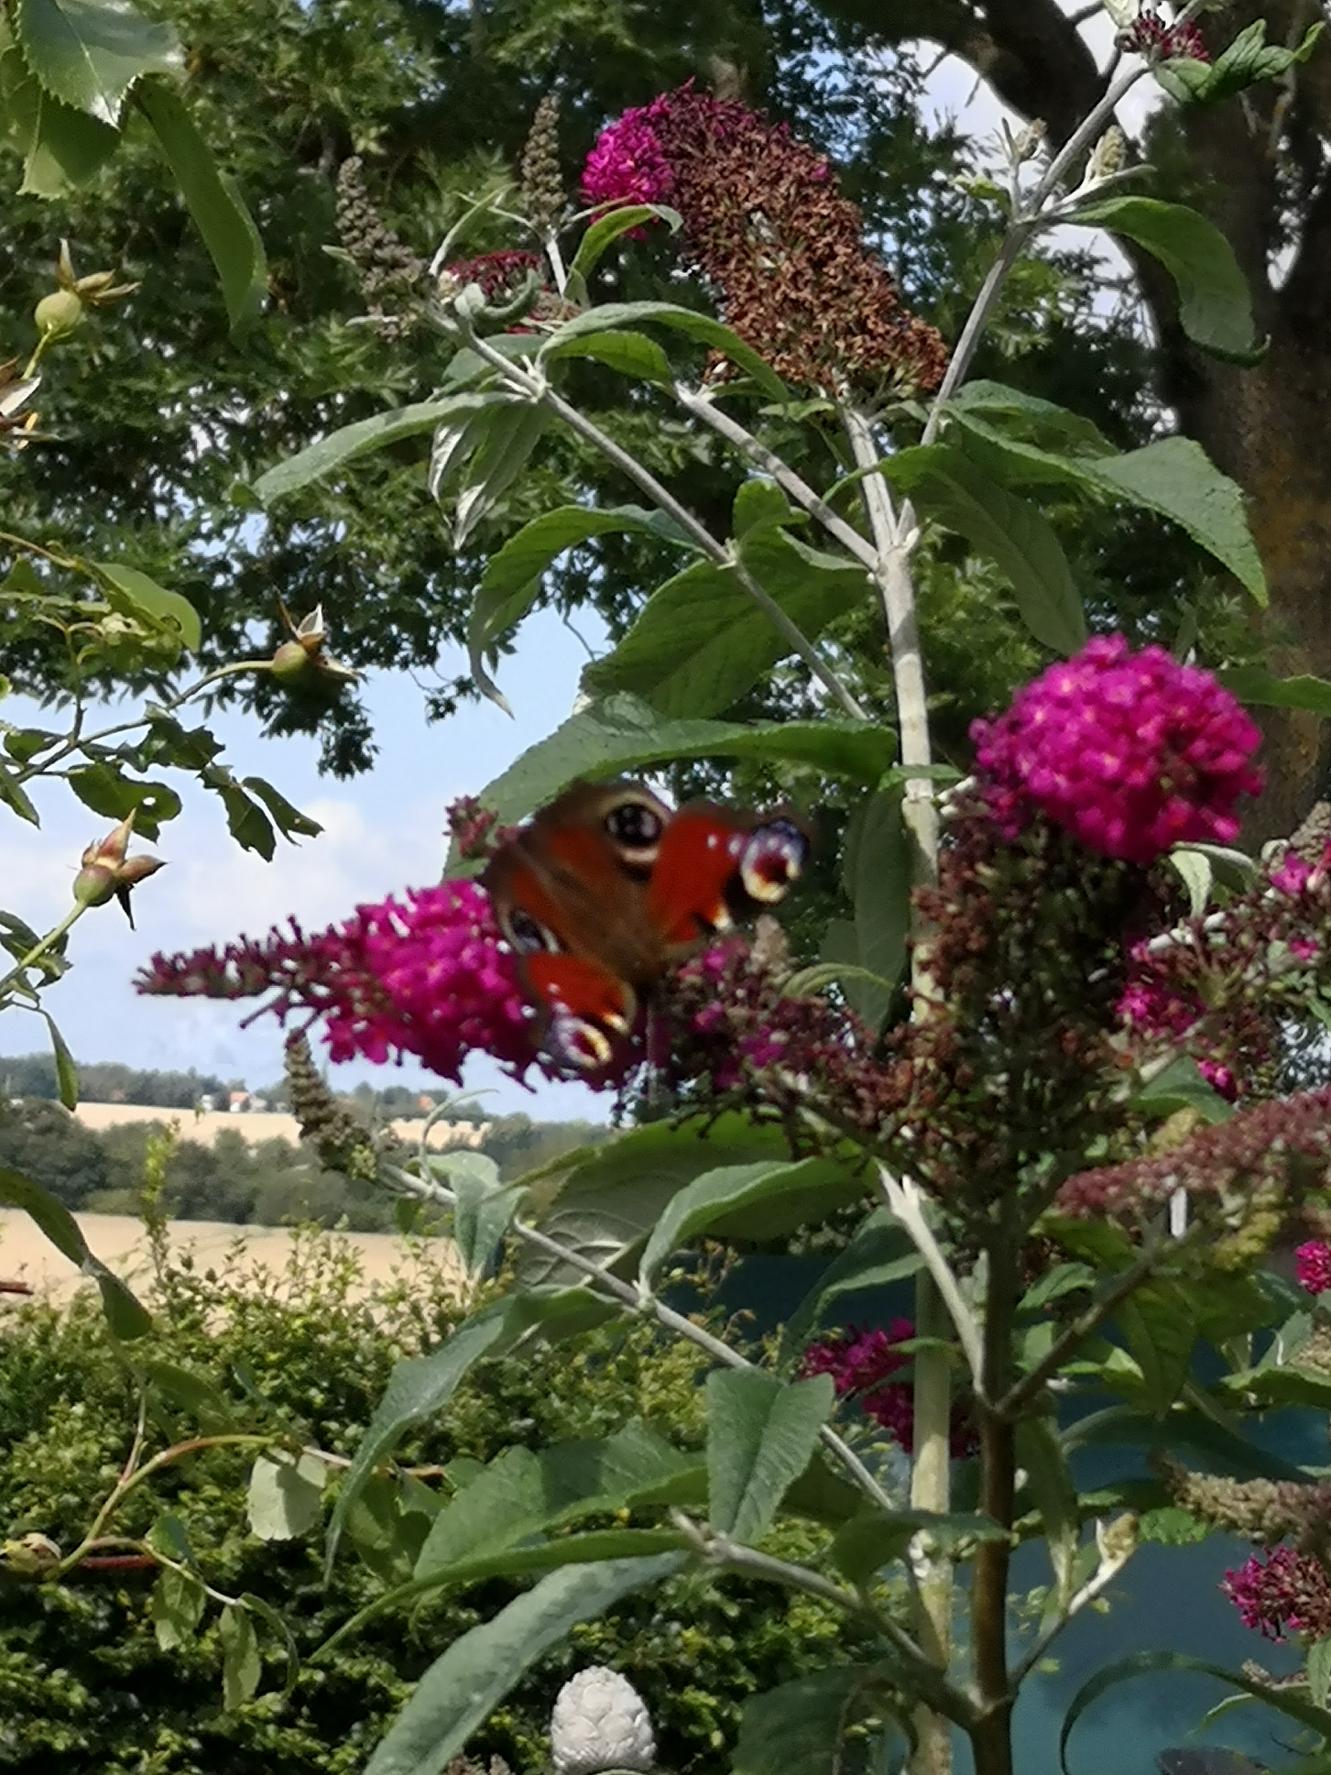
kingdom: Animalia
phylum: Arthropoda
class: Insecta
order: Lepidoptera
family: Nymphalidae
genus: Aglais
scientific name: Aglais io
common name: Dagpåfugleøje
